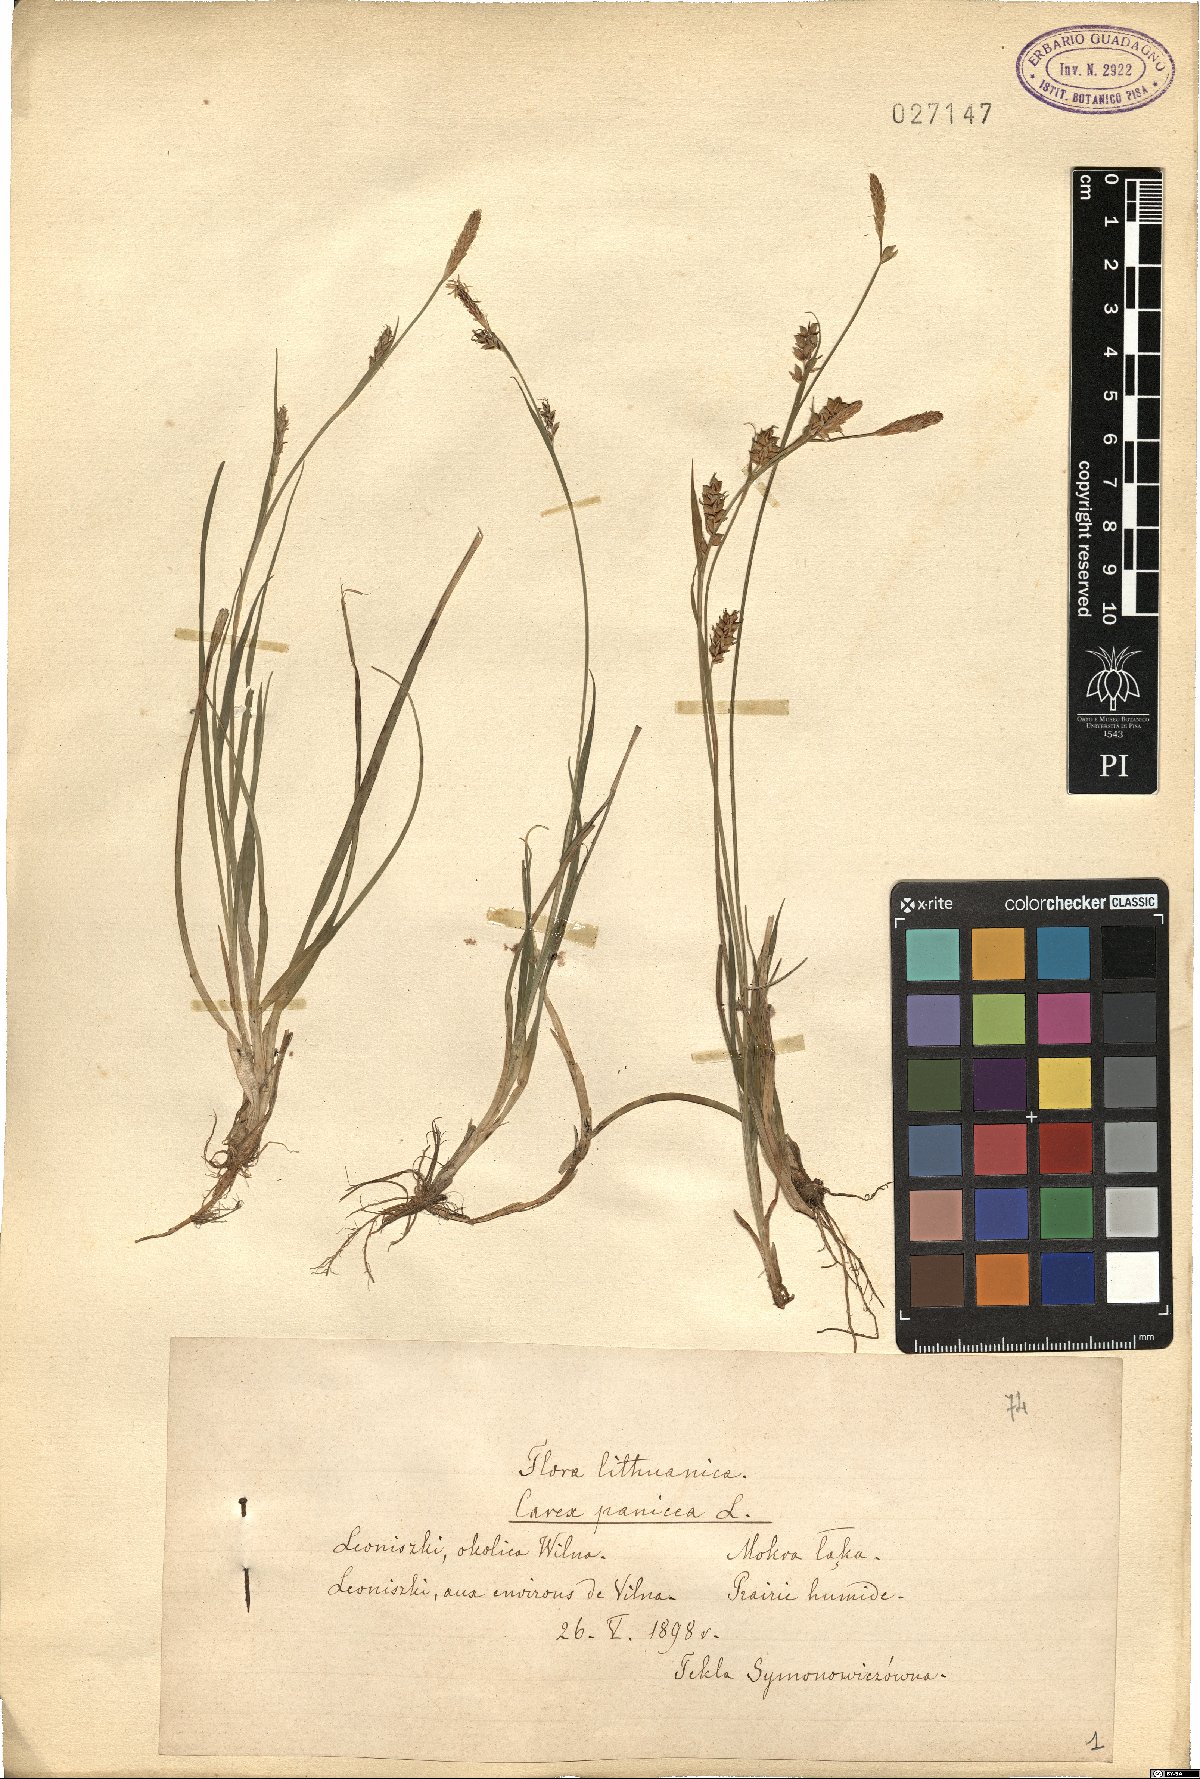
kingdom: Plantae
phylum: Tracheophyta
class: Liliopsida
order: Poales
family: Cyperaceae
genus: Carex
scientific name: Carex panicea
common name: Carnation sedge
